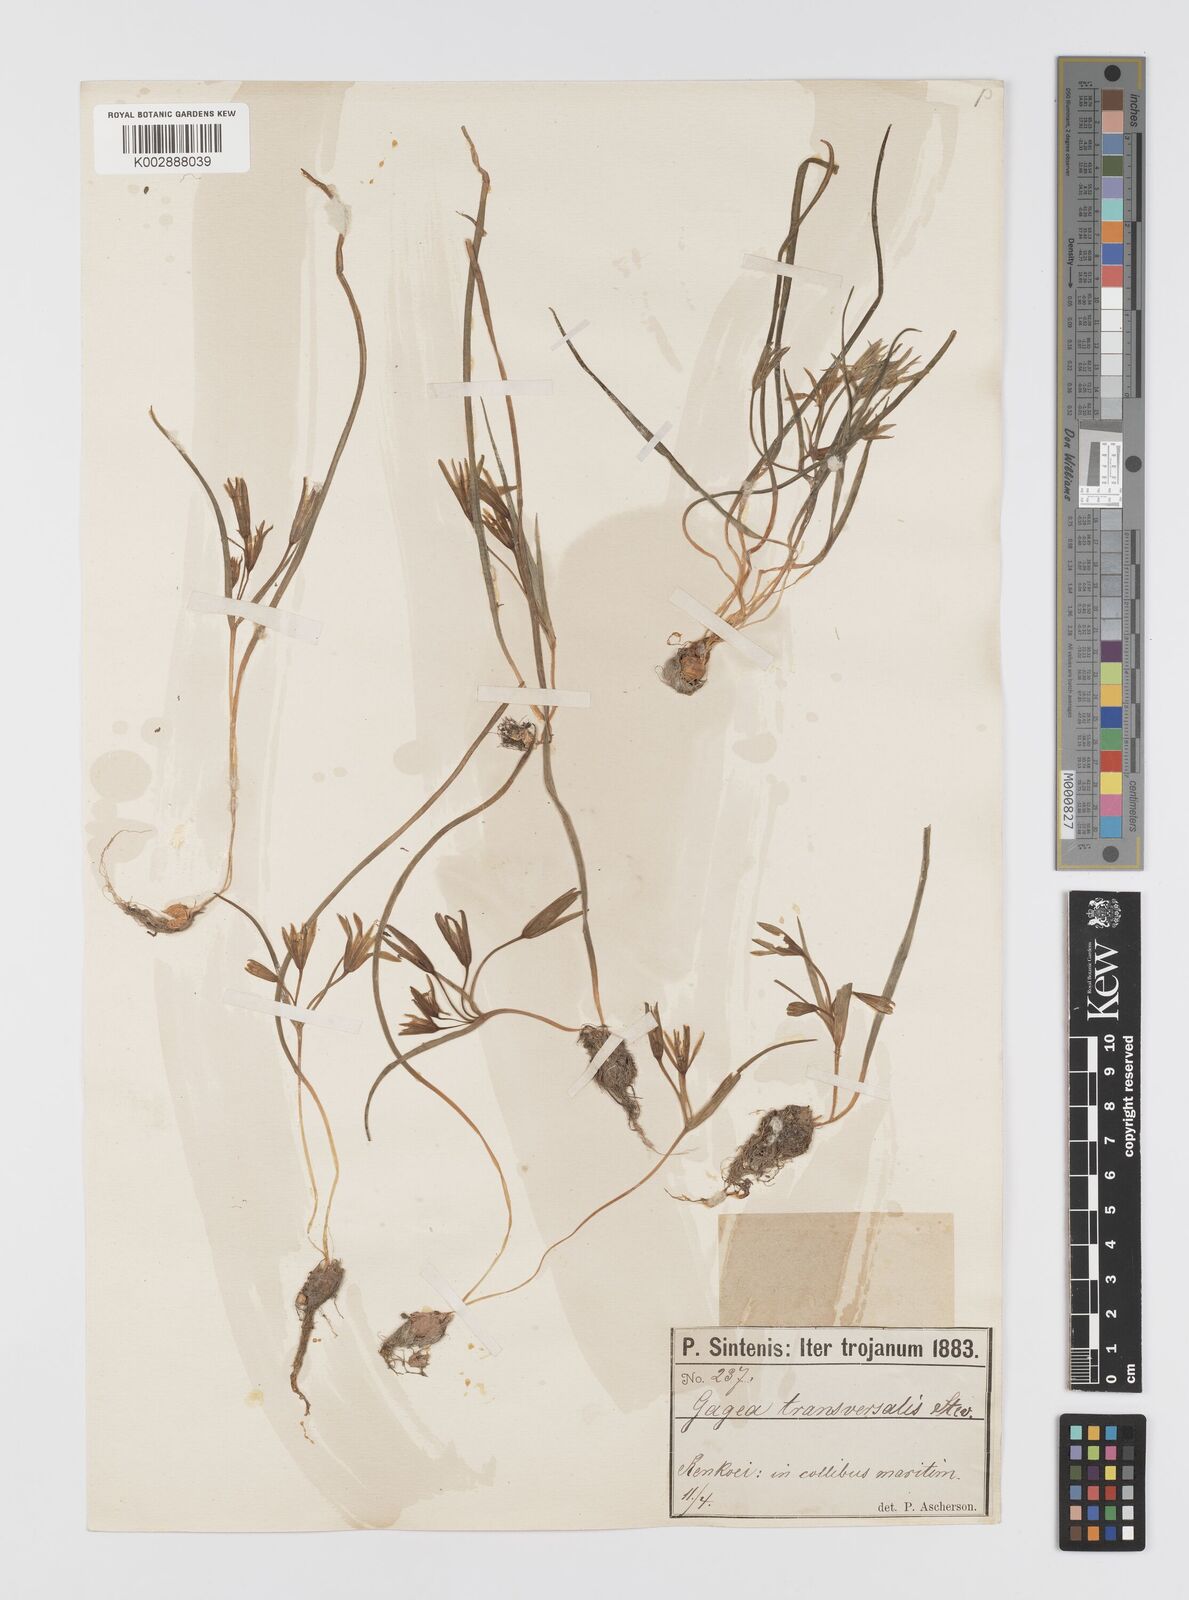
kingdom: Plantae
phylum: Tracheophyta
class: Liliopsida
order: Liliales
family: Liliaceae
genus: Gagea
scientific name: Gagea transversalis
